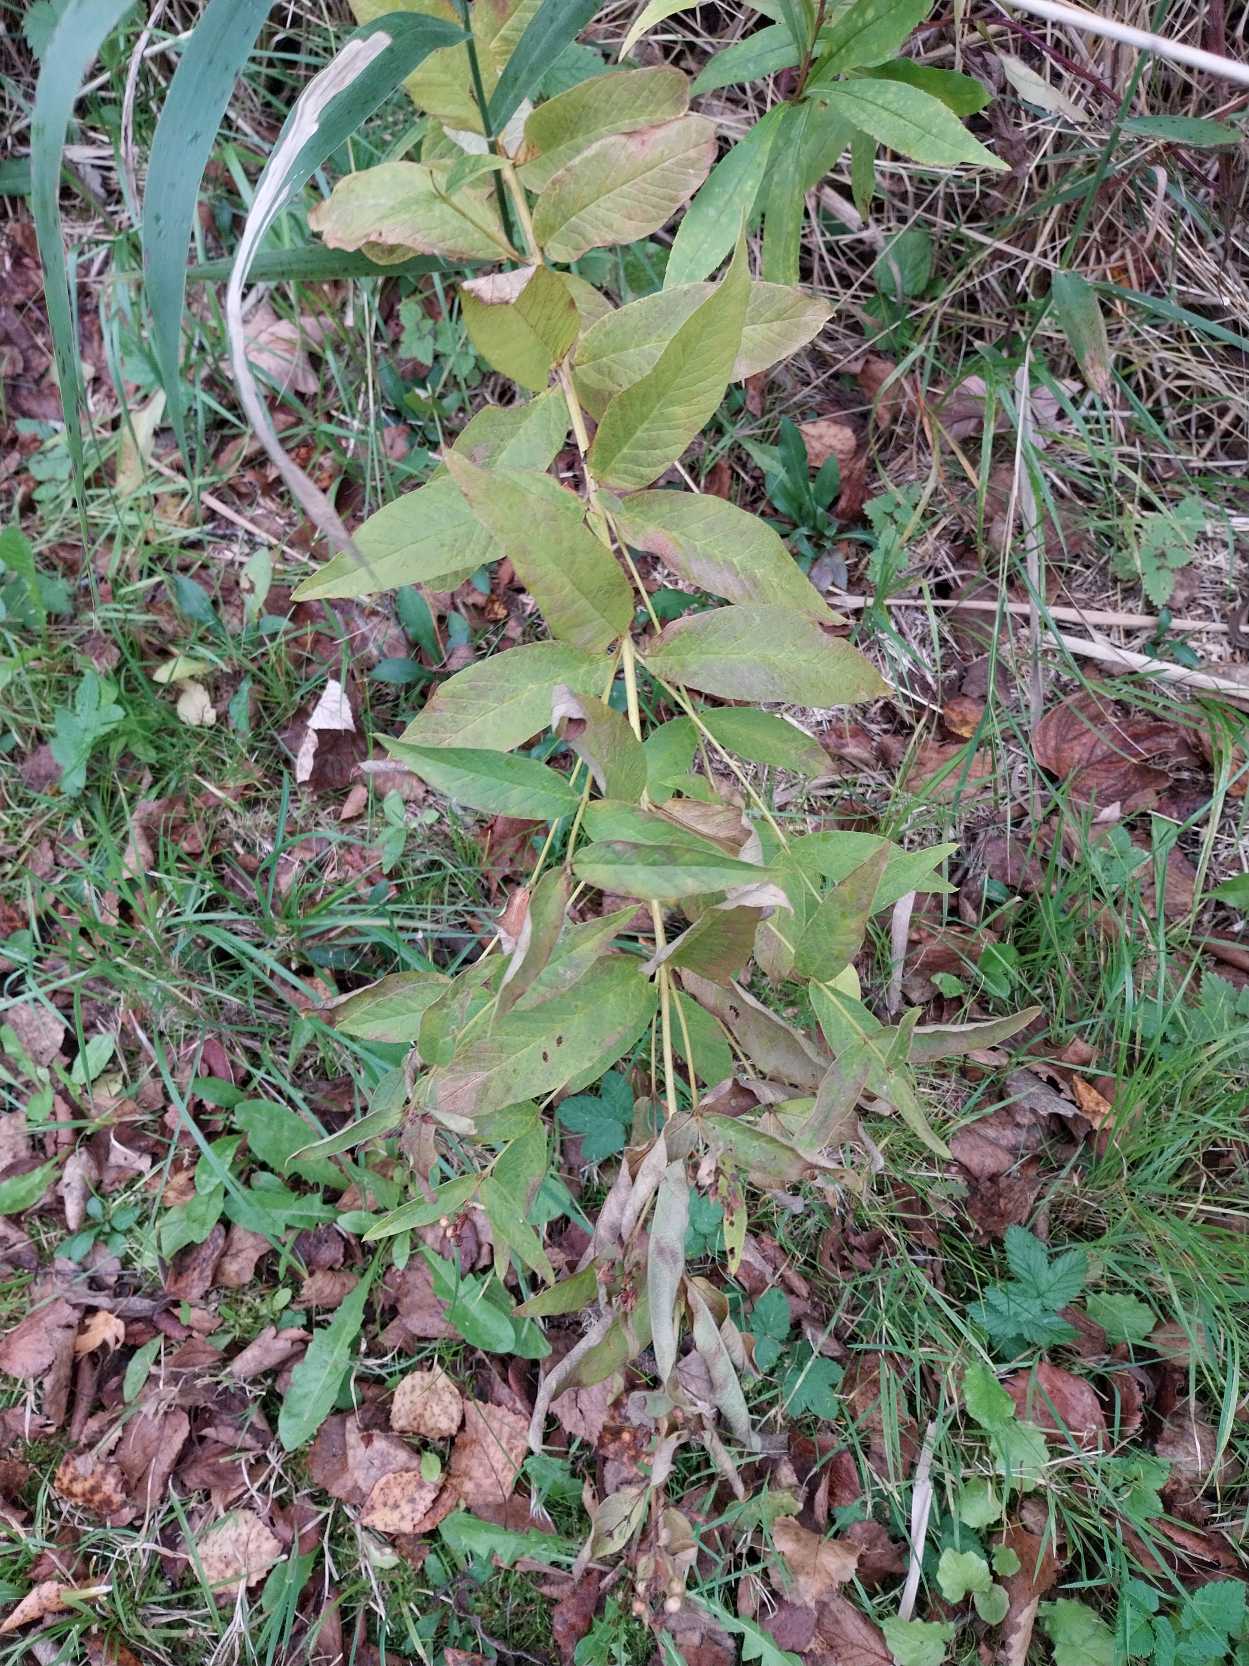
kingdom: Plantae
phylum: Tracheophyta
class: Magnoliopsida
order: Ericales
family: Primulaceae
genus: Lysimachia
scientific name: Lysimachia vulgaris
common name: Almindelig fredløs
